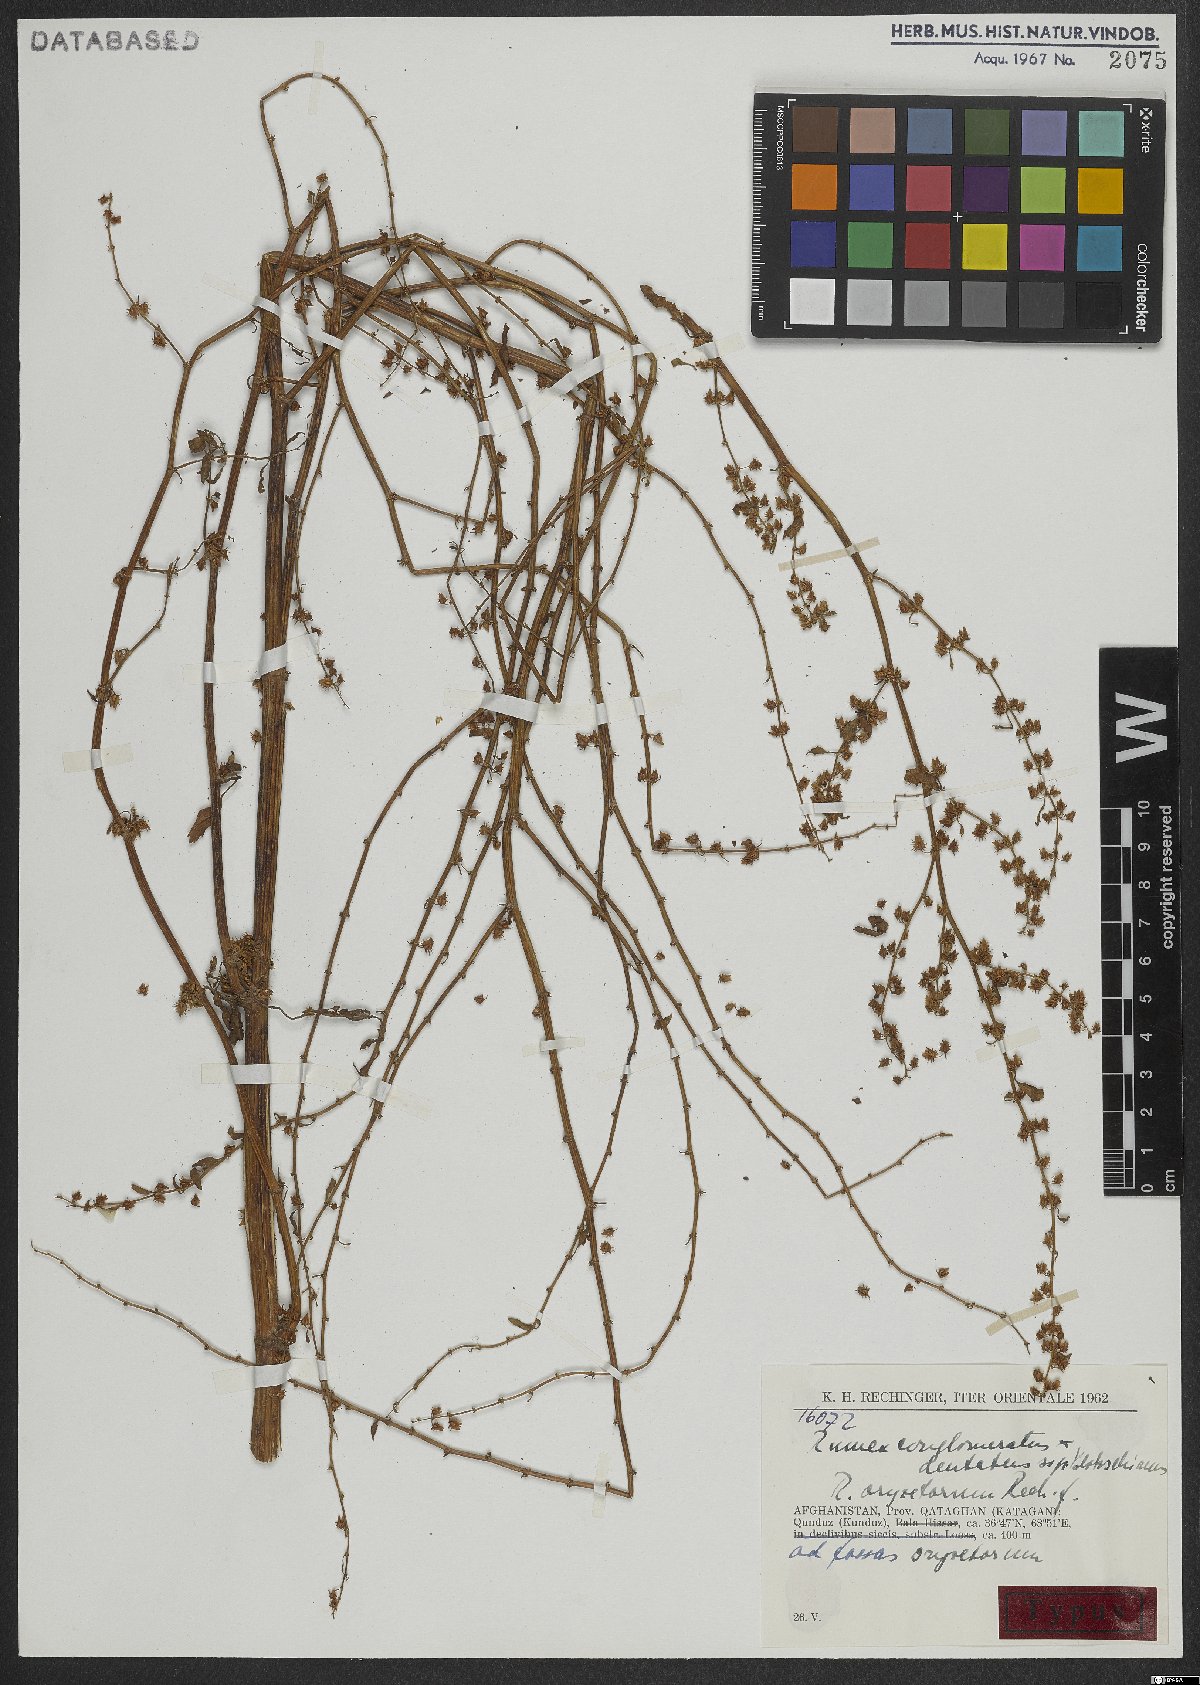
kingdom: Plantae
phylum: Tracheophyta
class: Magnoliopsida
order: Caryophyllales
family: Polygonaceae
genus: Rumex
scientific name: Rumex oryzetorum
